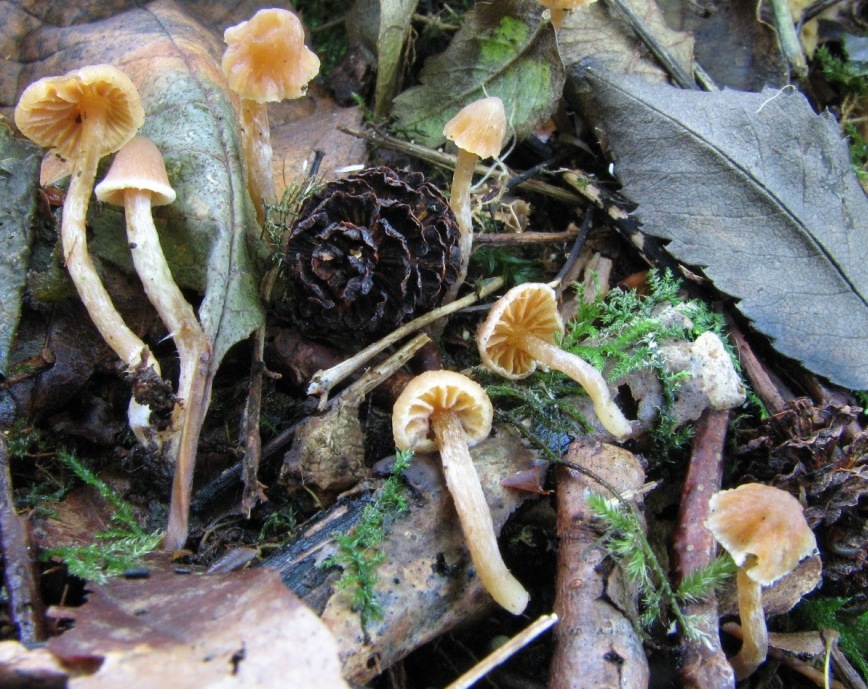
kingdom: Fungi
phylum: Basidiomycota
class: Agaricomycetes
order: Agaricales
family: Cortinariaceae
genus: Cortinarius
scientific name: Cortinarius acutus
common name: spids slørhat
